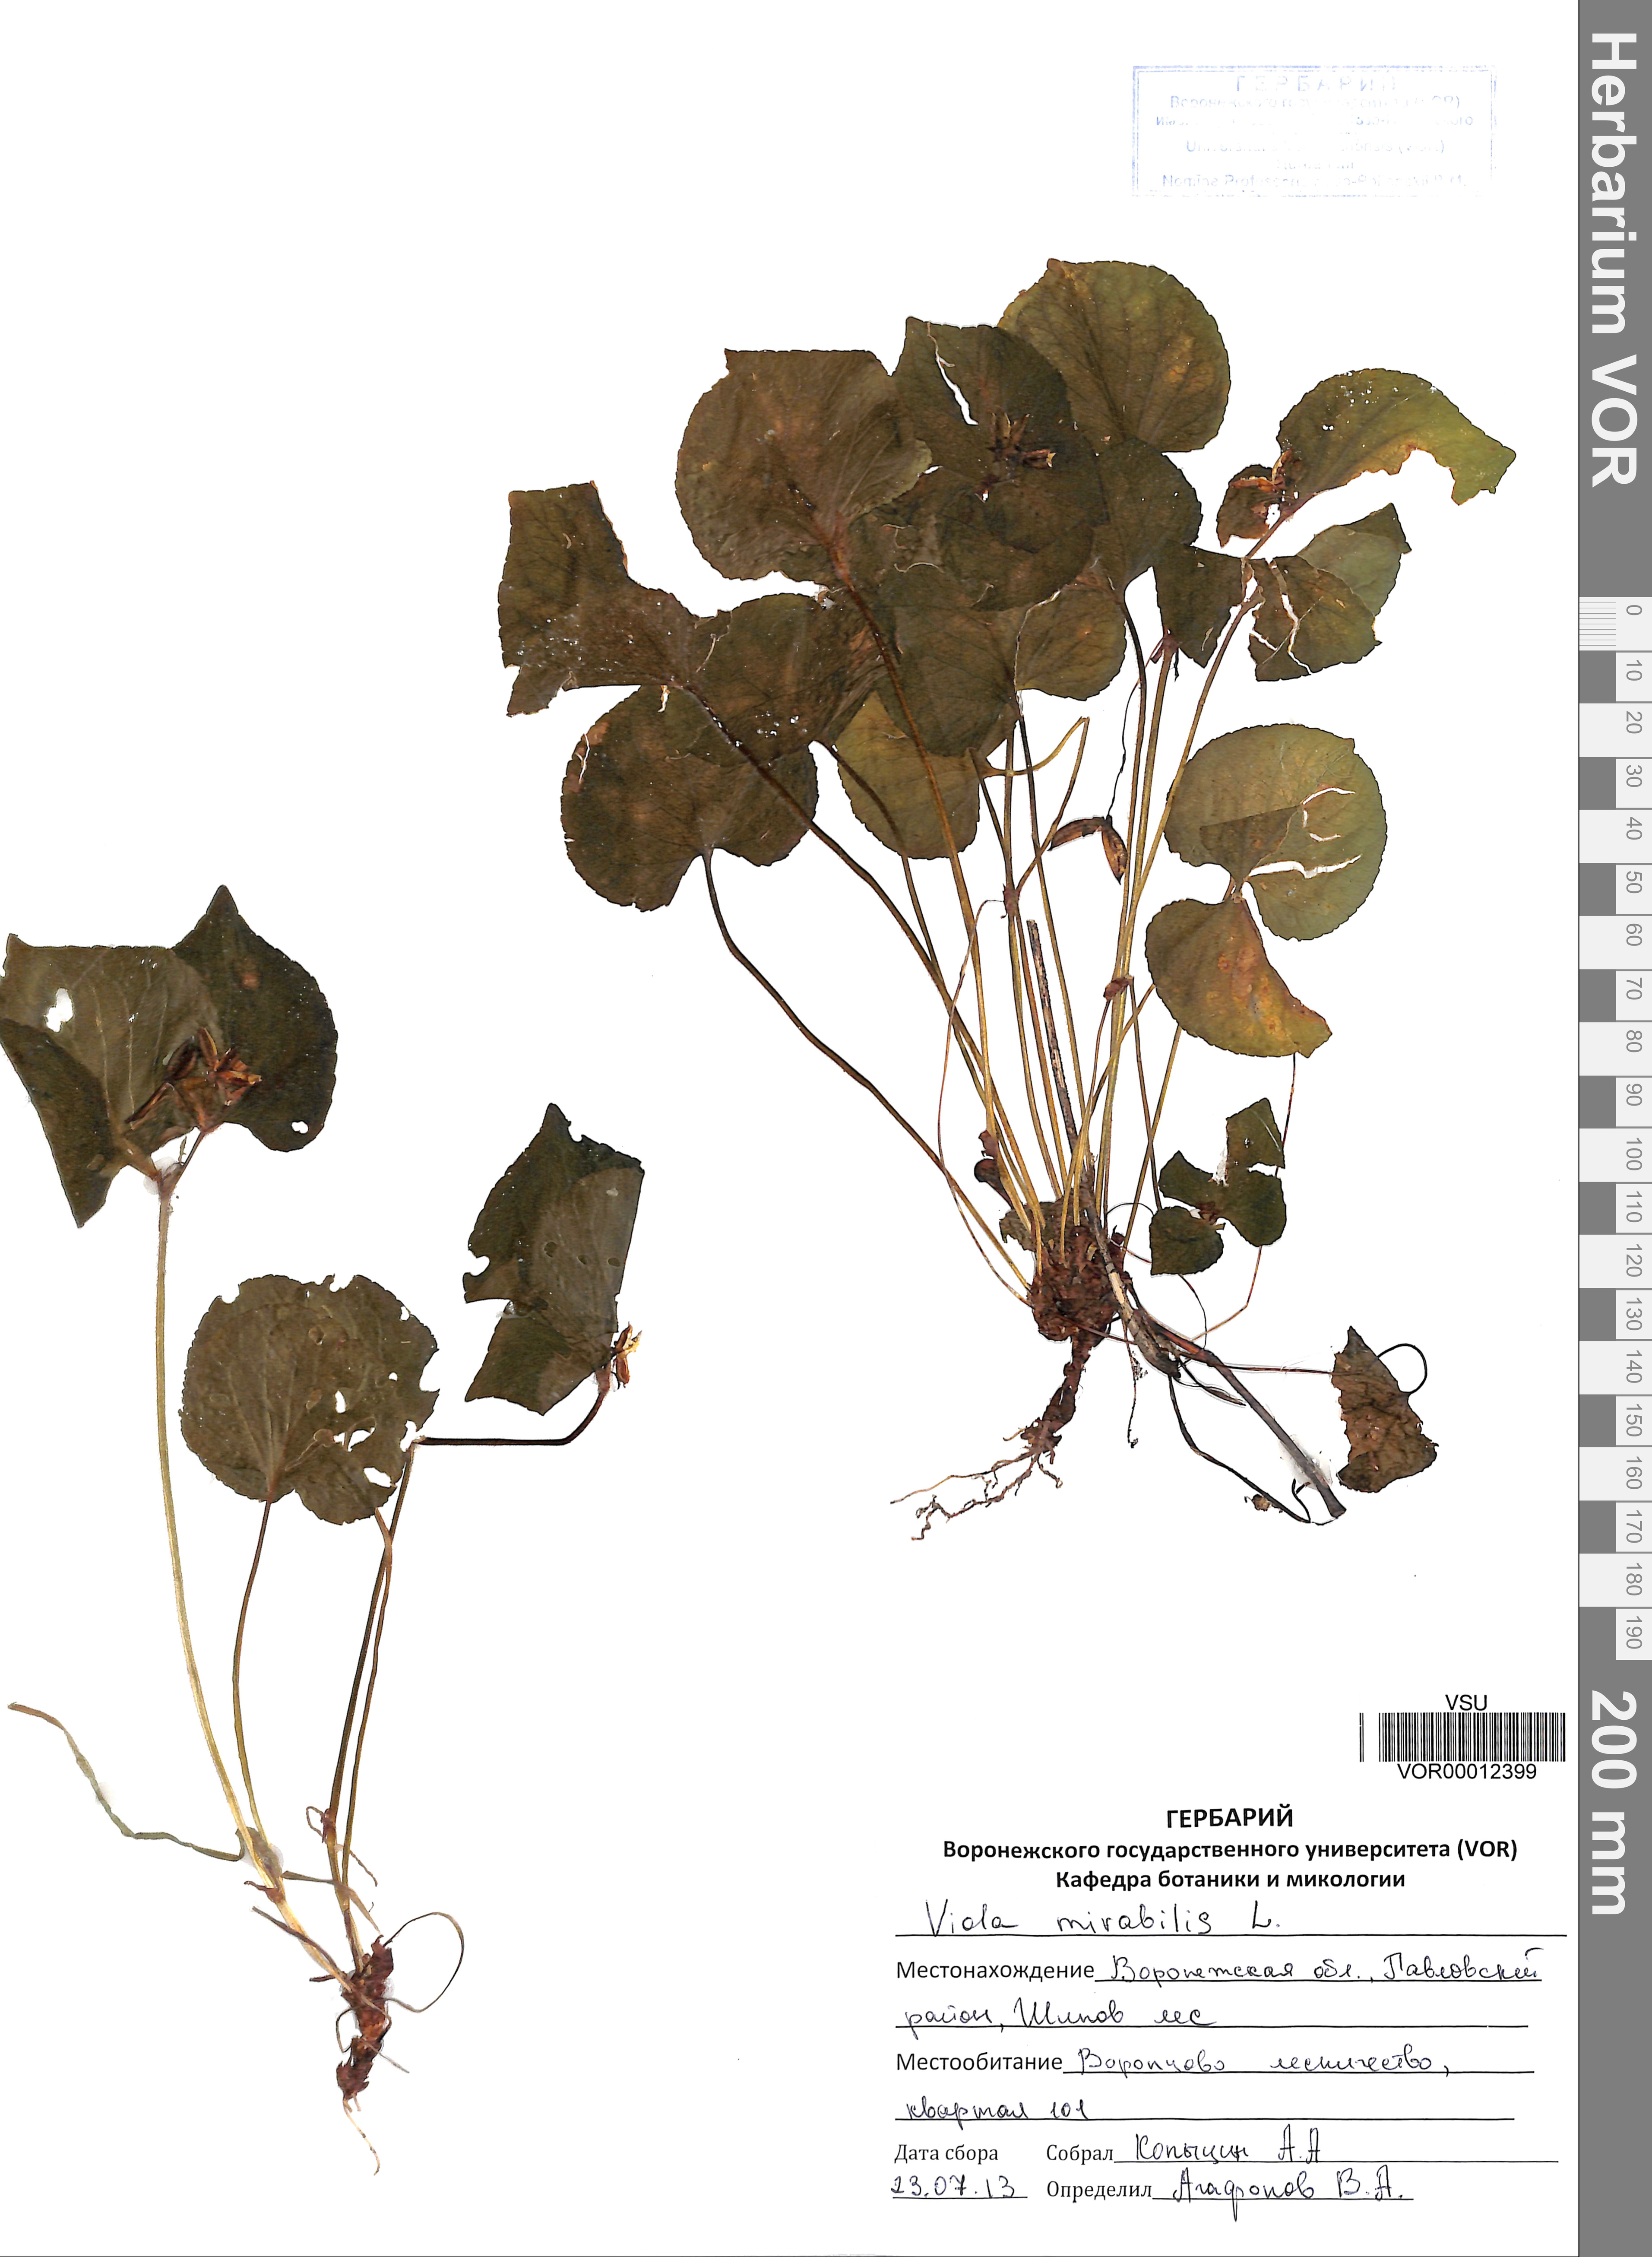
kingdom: Plantae
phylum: Tracheophyta
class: Magnoliopsida
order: Malpighiales
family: Violaceae
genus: Viola
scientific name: Viola mirabilis
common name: Wonder violet
